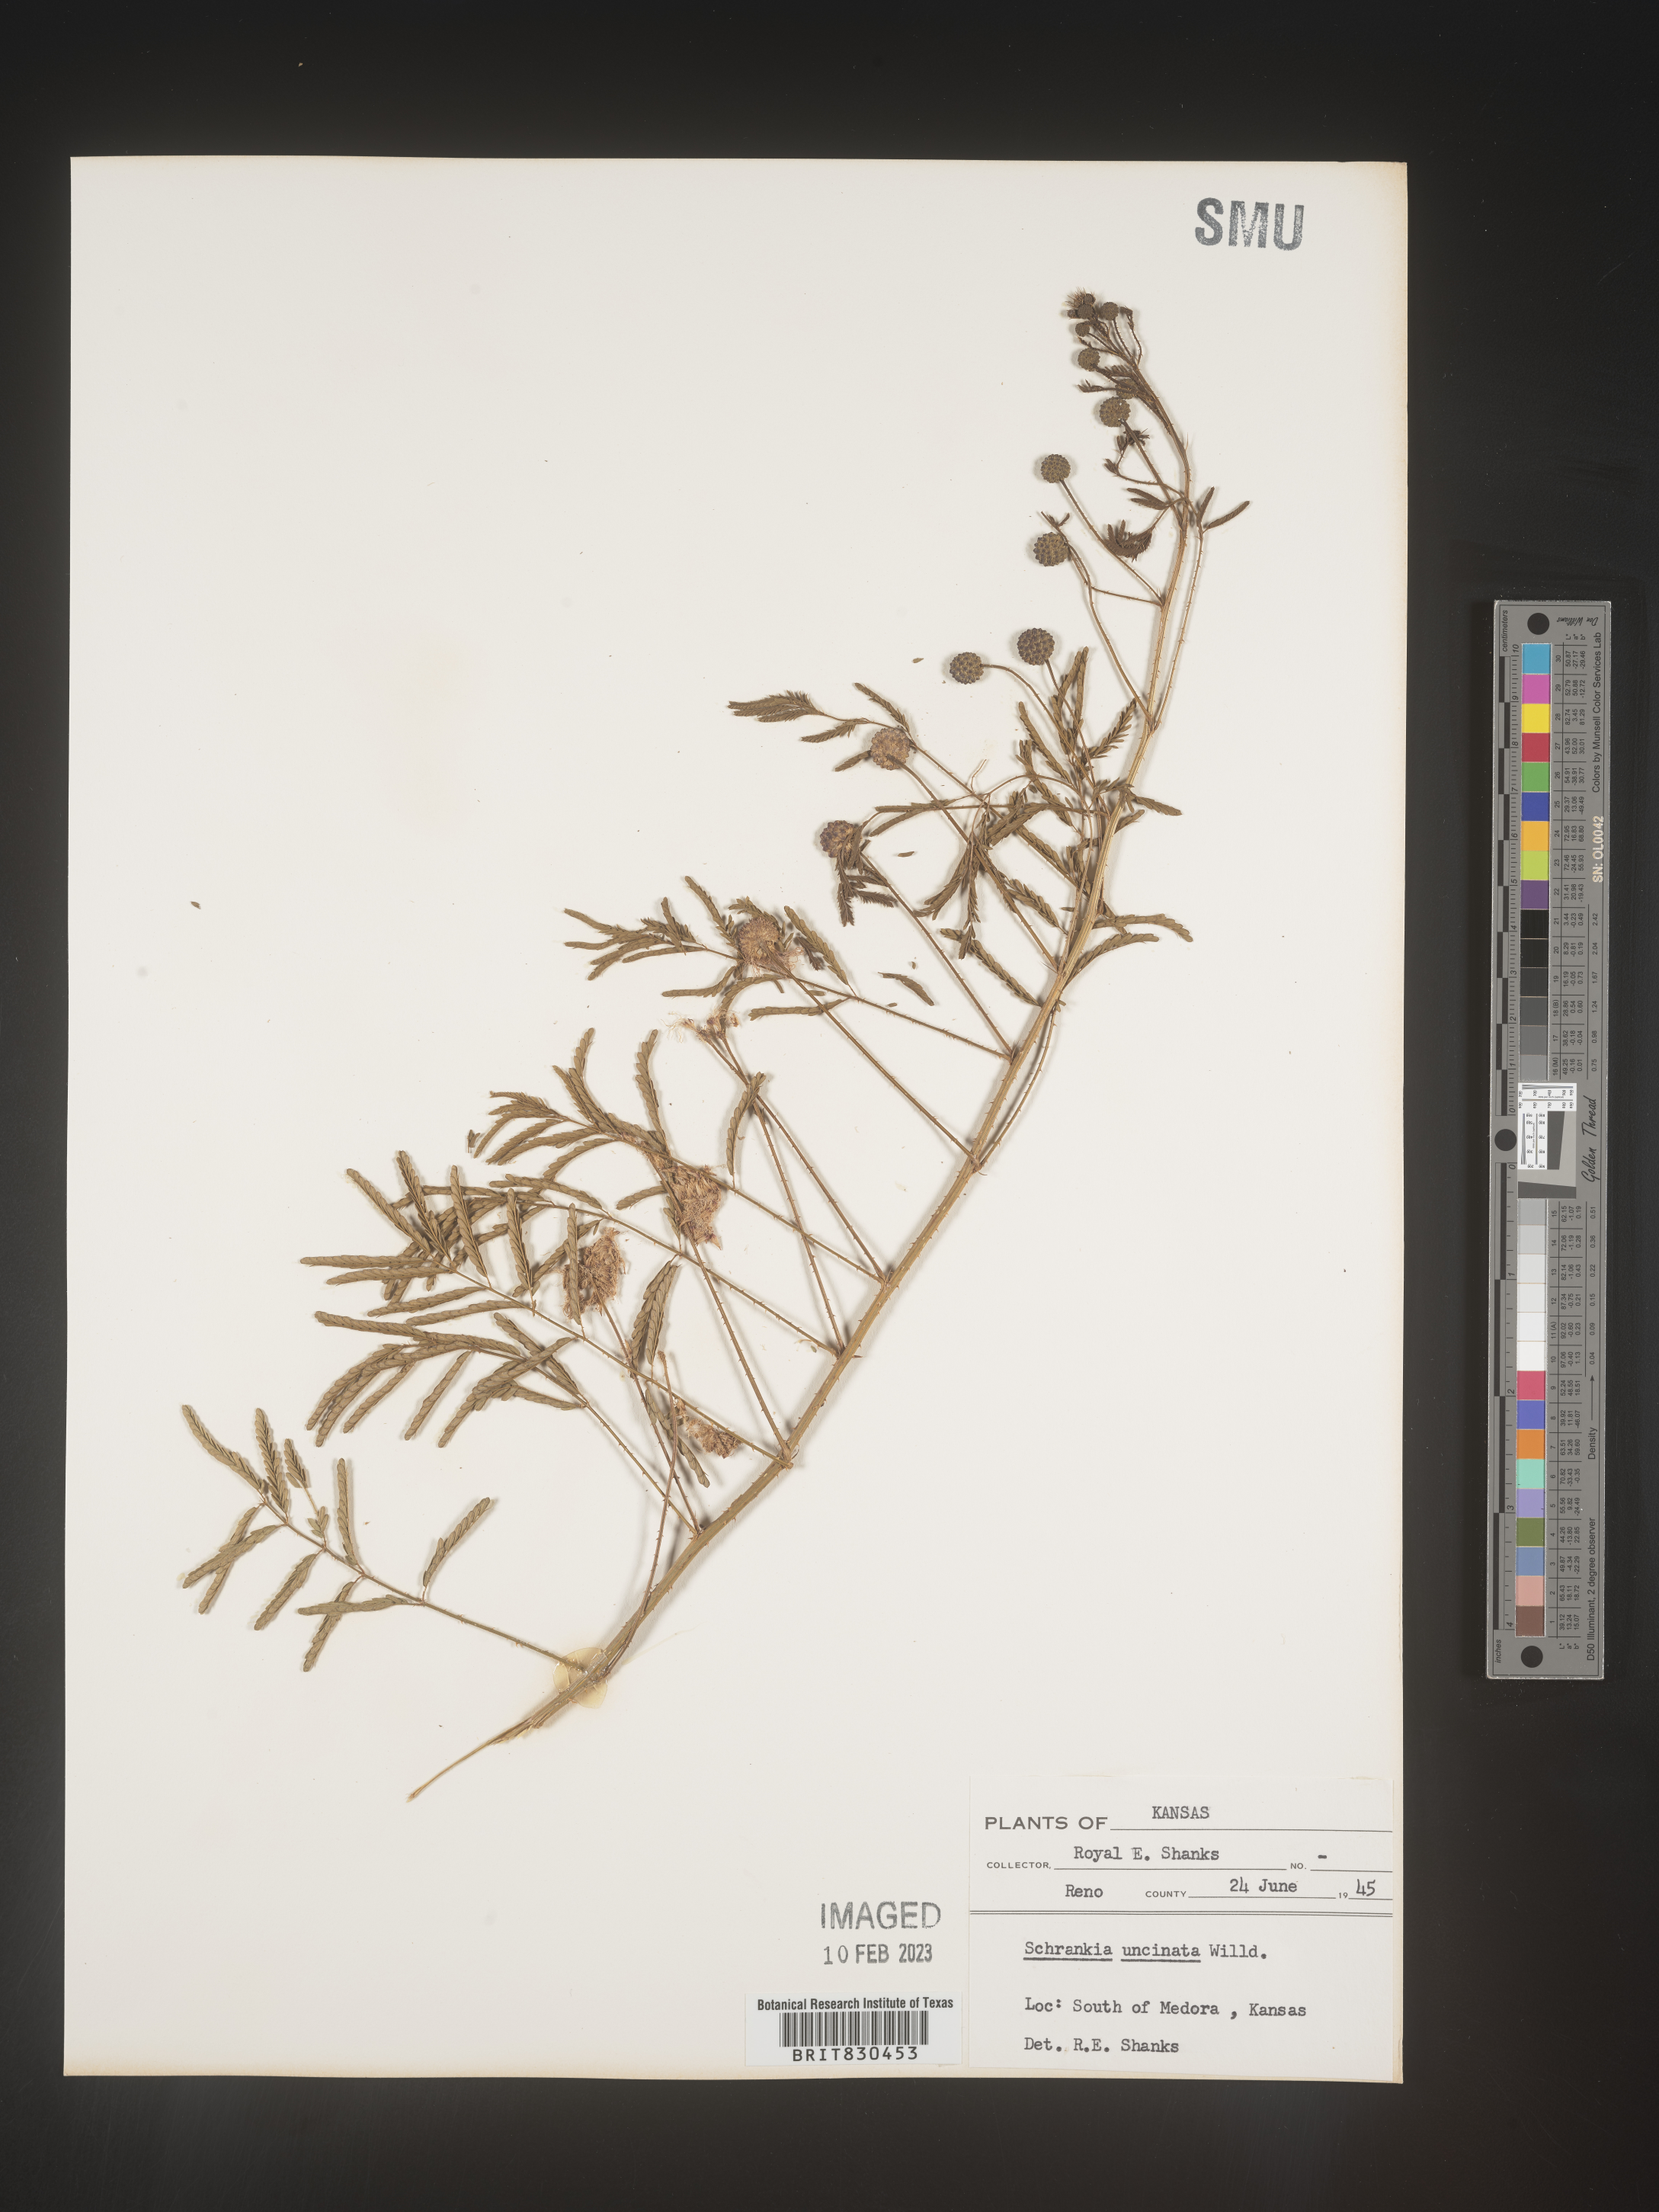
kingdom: Plantae
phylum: Tracheophyta
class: Magnoliopsida
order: Fabales
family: Fabaceae
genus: Mimosa
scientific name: Mimosa quadrivalvis
